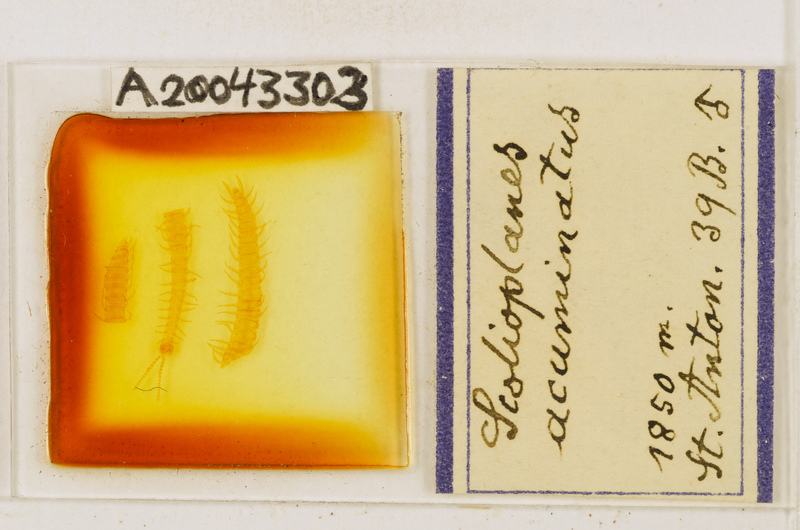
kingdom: Animalia
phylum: Arthropoda
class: Chilopoda
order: Geophilomorpha
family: Linotaeniidae
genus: Strigamia
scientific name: Strigamia acuminata
